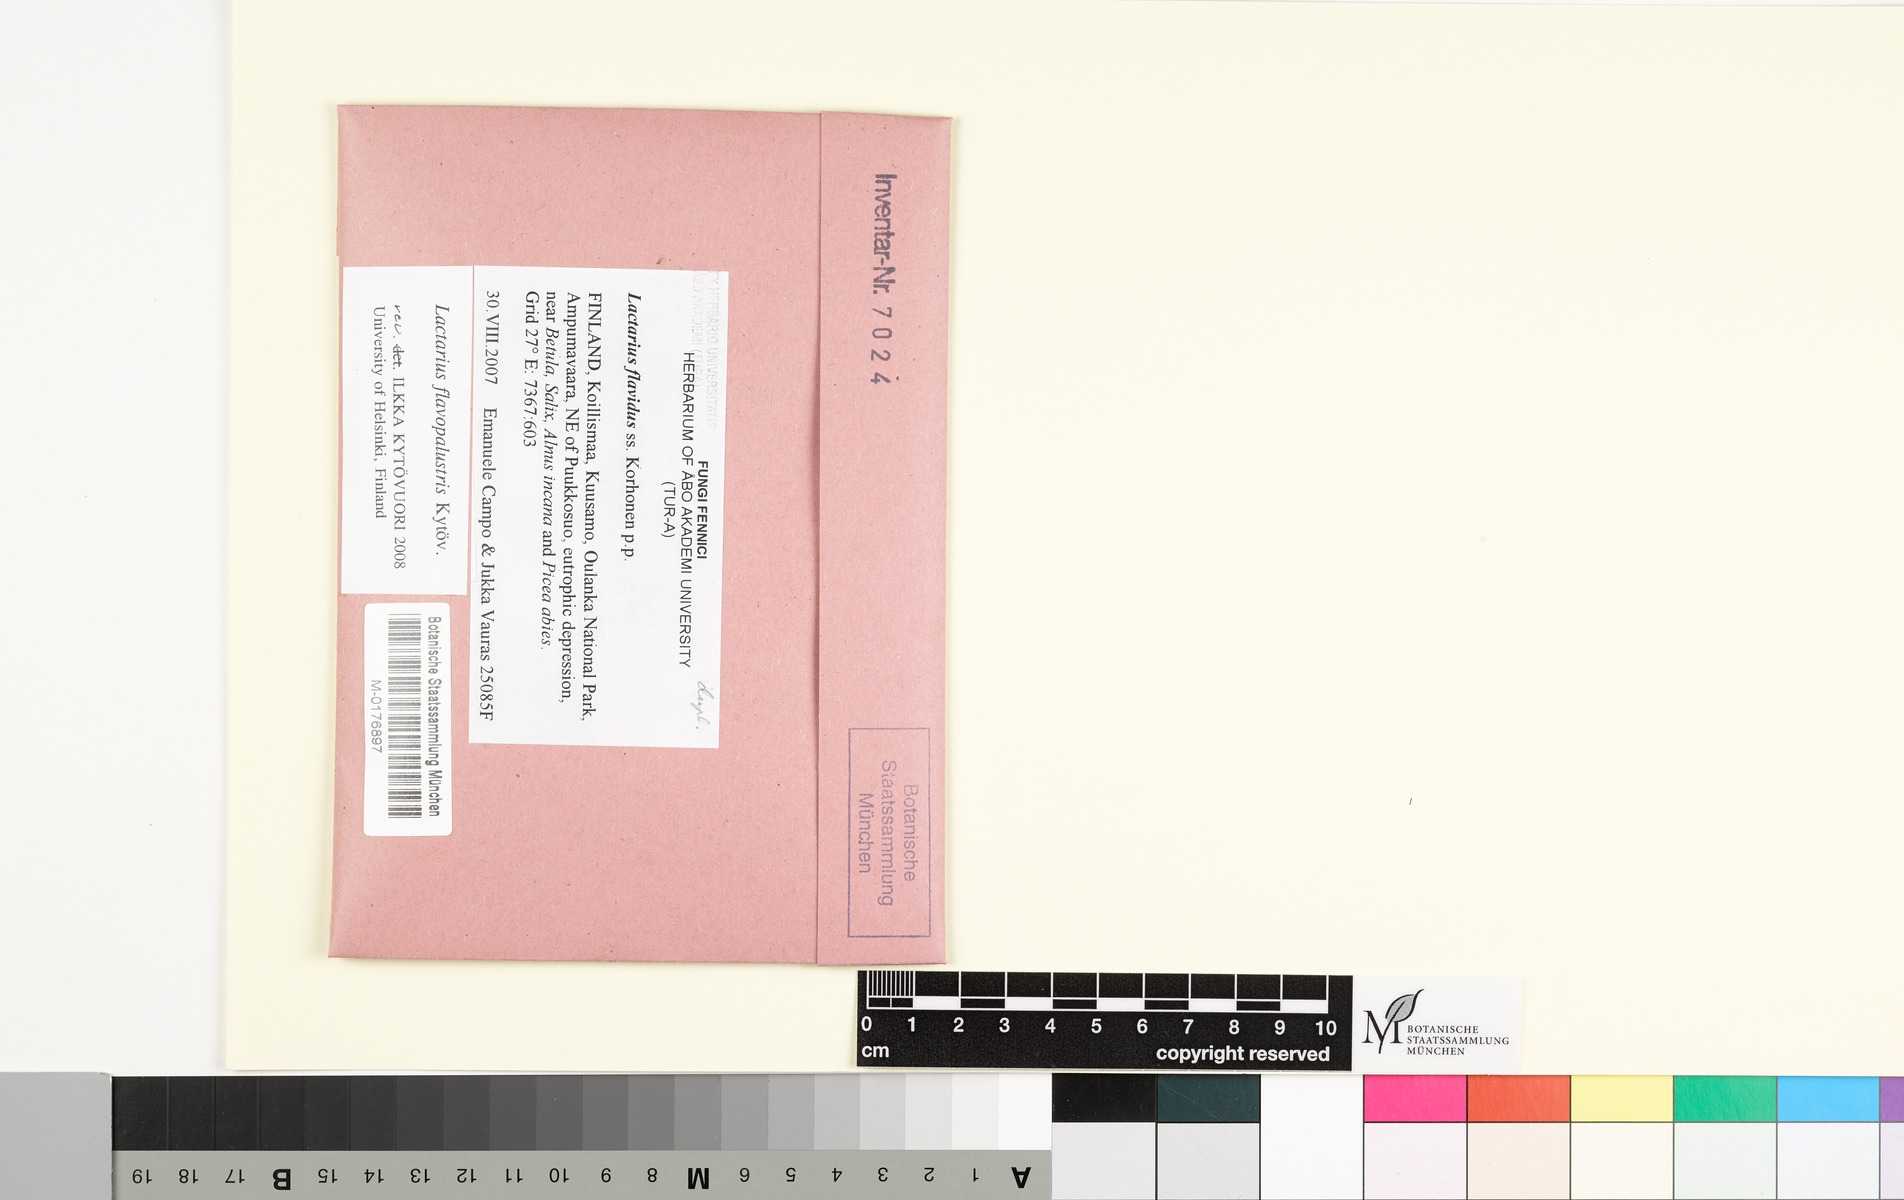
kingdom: Fungi
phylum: Basidiomycota
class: Agaricomycetes
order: Russulales
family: Russulaceae
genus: Lactarius
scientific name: Lactarius flavopalustris
